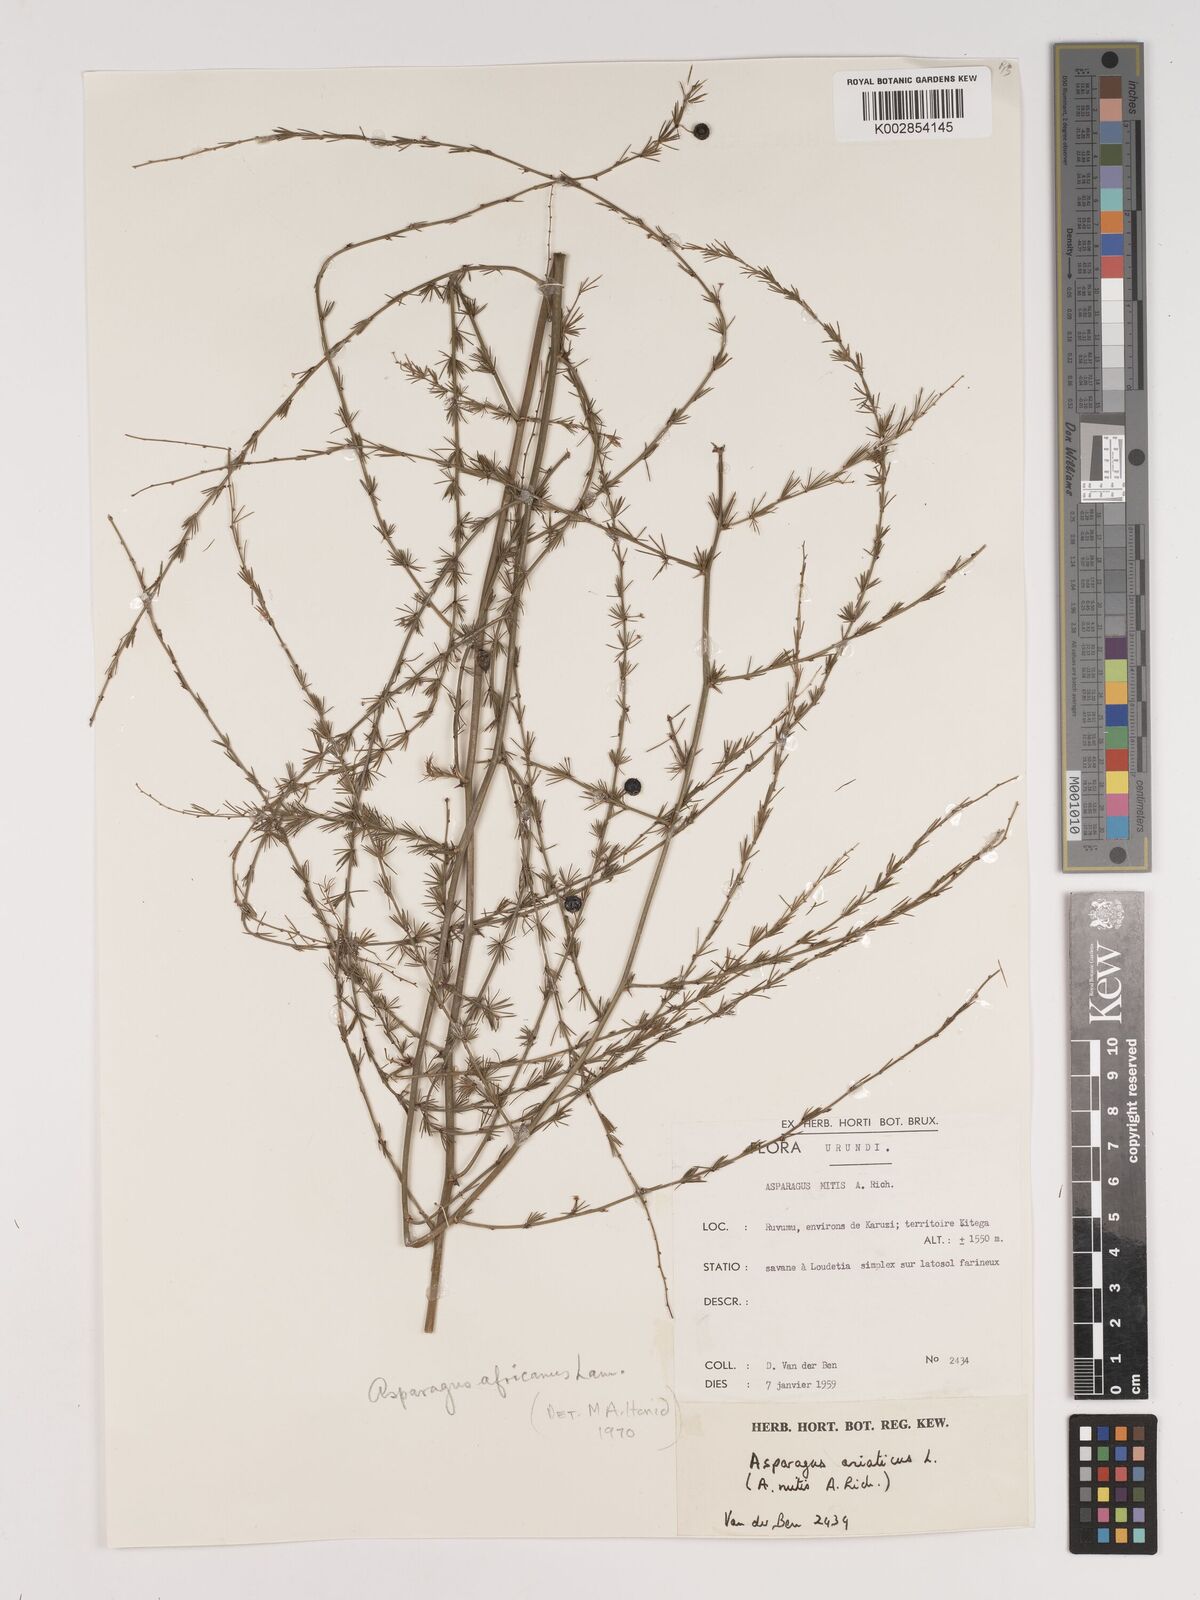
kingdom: Plantae
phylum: Tracheophyta
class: Liliopsida
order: Asparagales
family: Asparagaceae
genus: Asparagus
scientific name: Asparagus africanus
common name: Asparagus-fern
